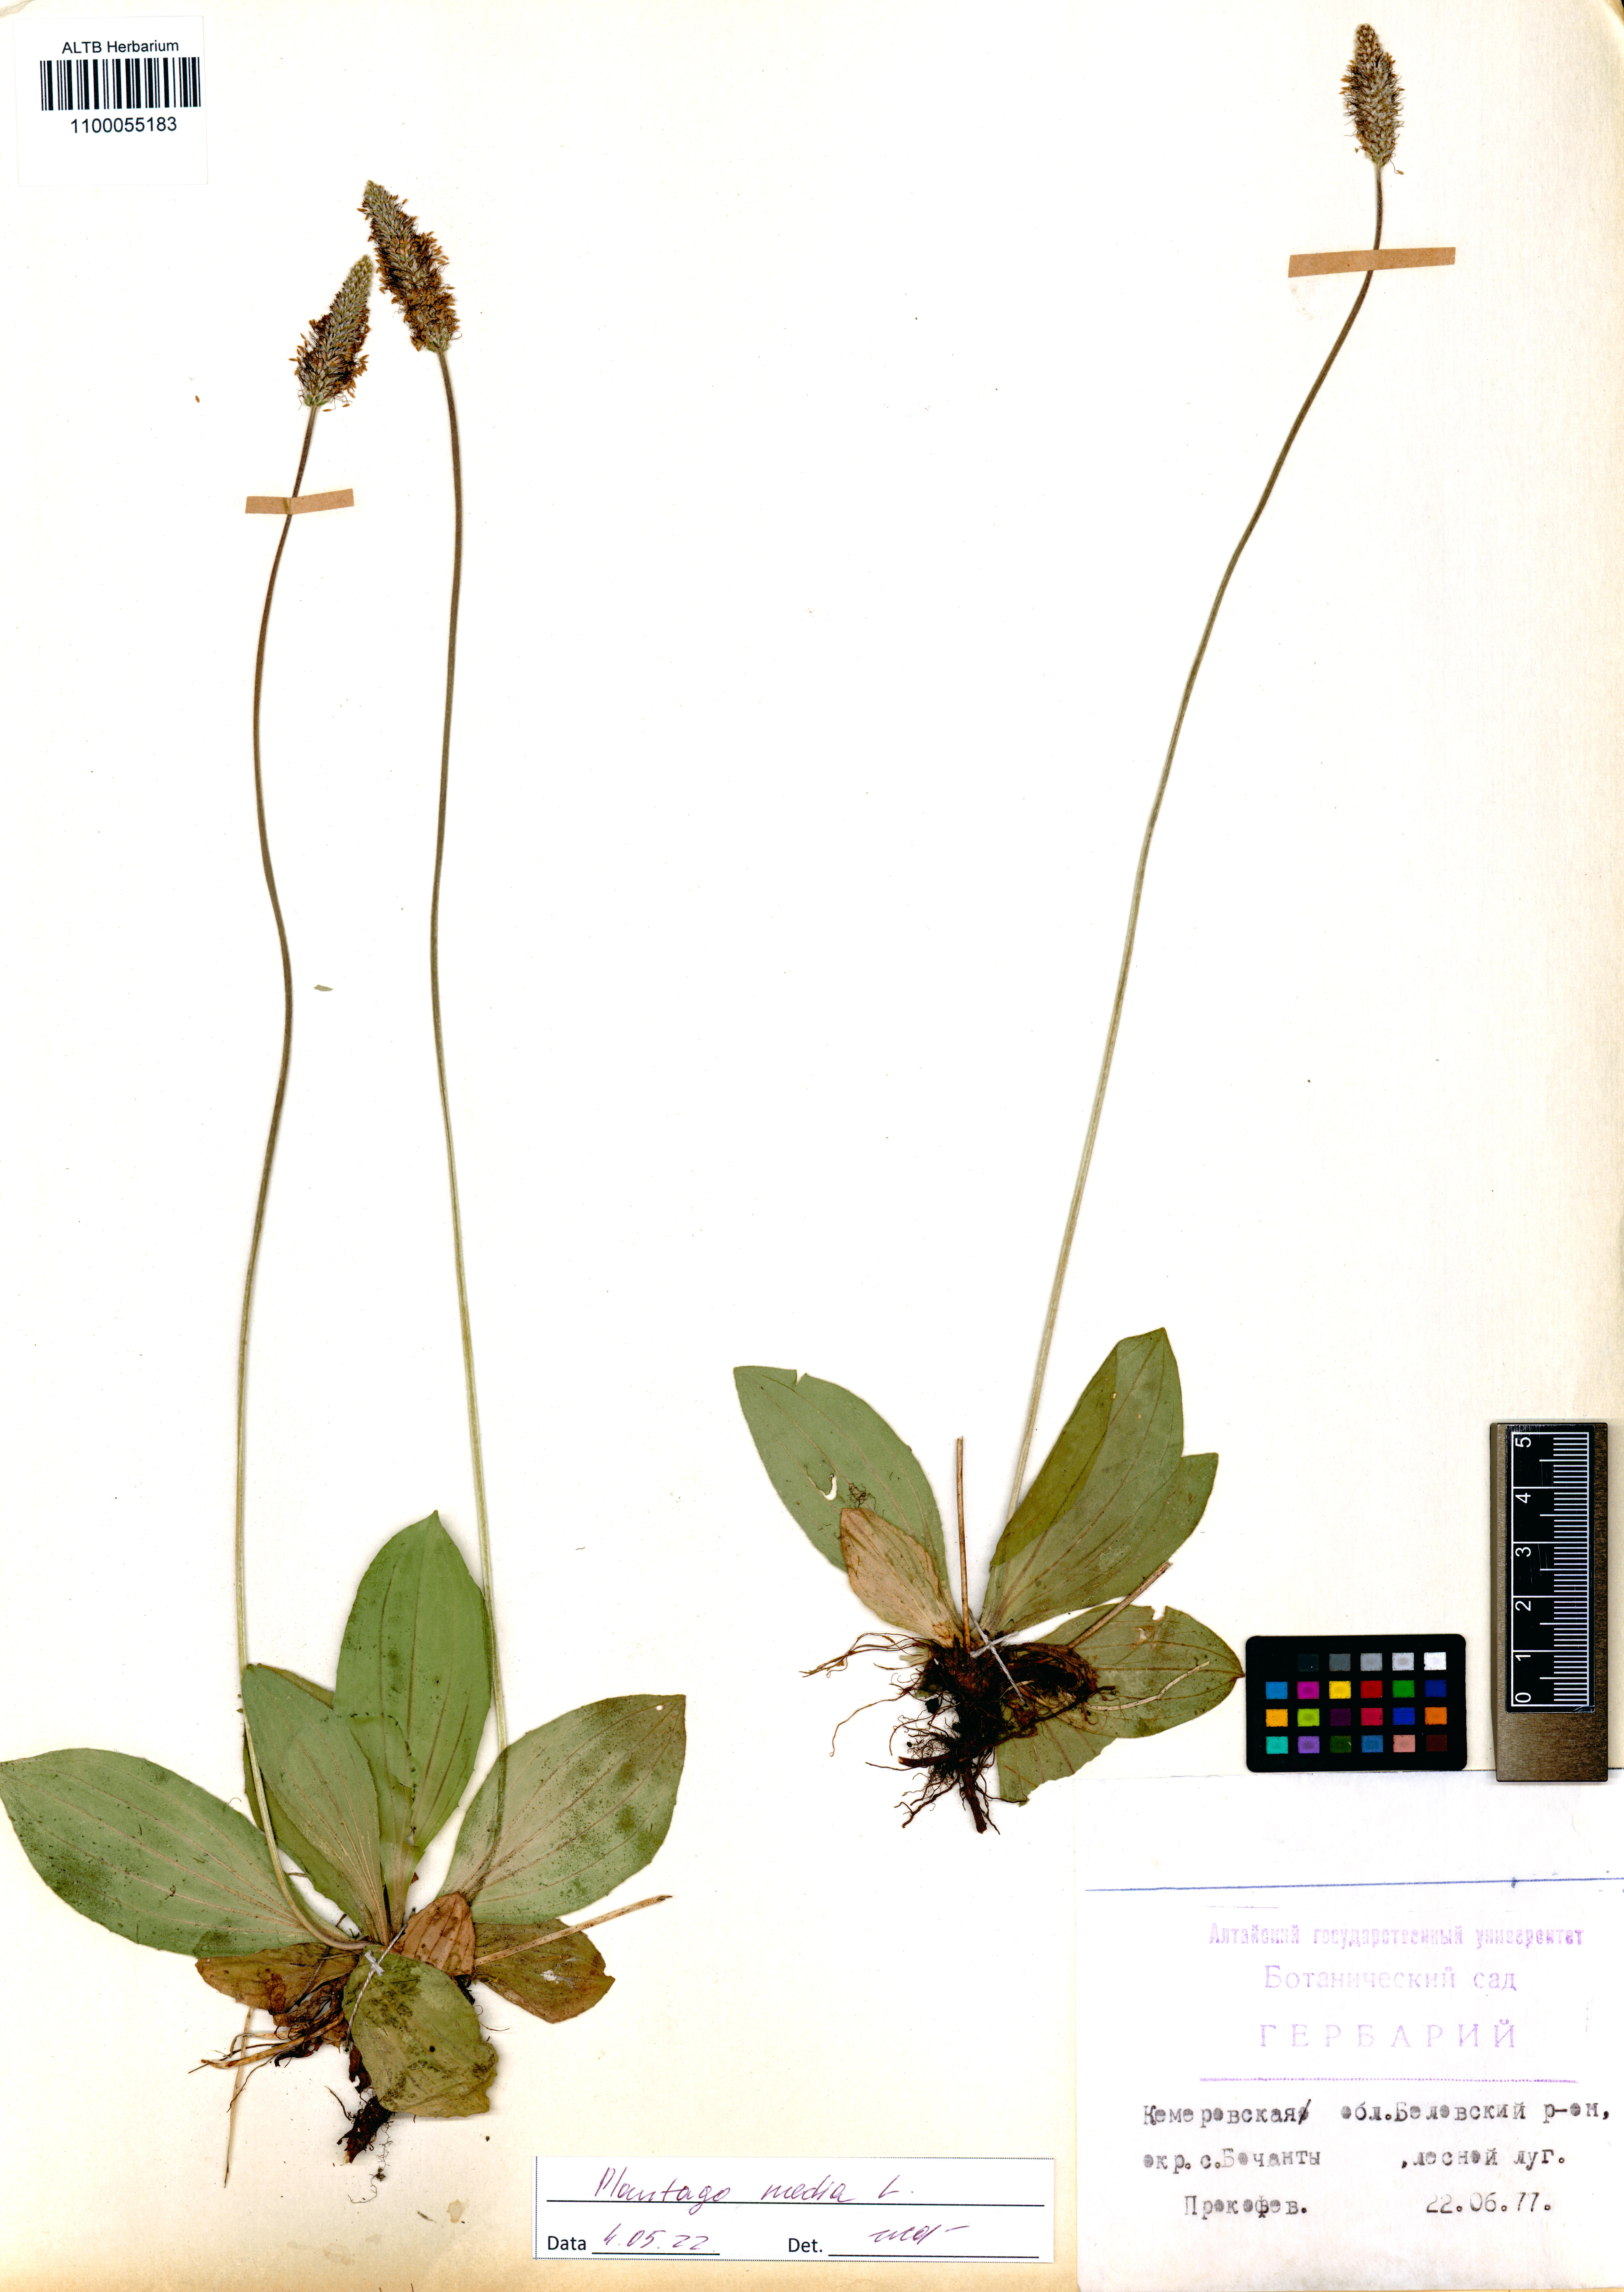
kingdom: Plantae
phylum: Tracheophyta
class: Magnoliopsida
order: Lamiales
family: Plantaginaceae
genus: Plantago
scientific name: Plantago media
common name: Hoary plantain
